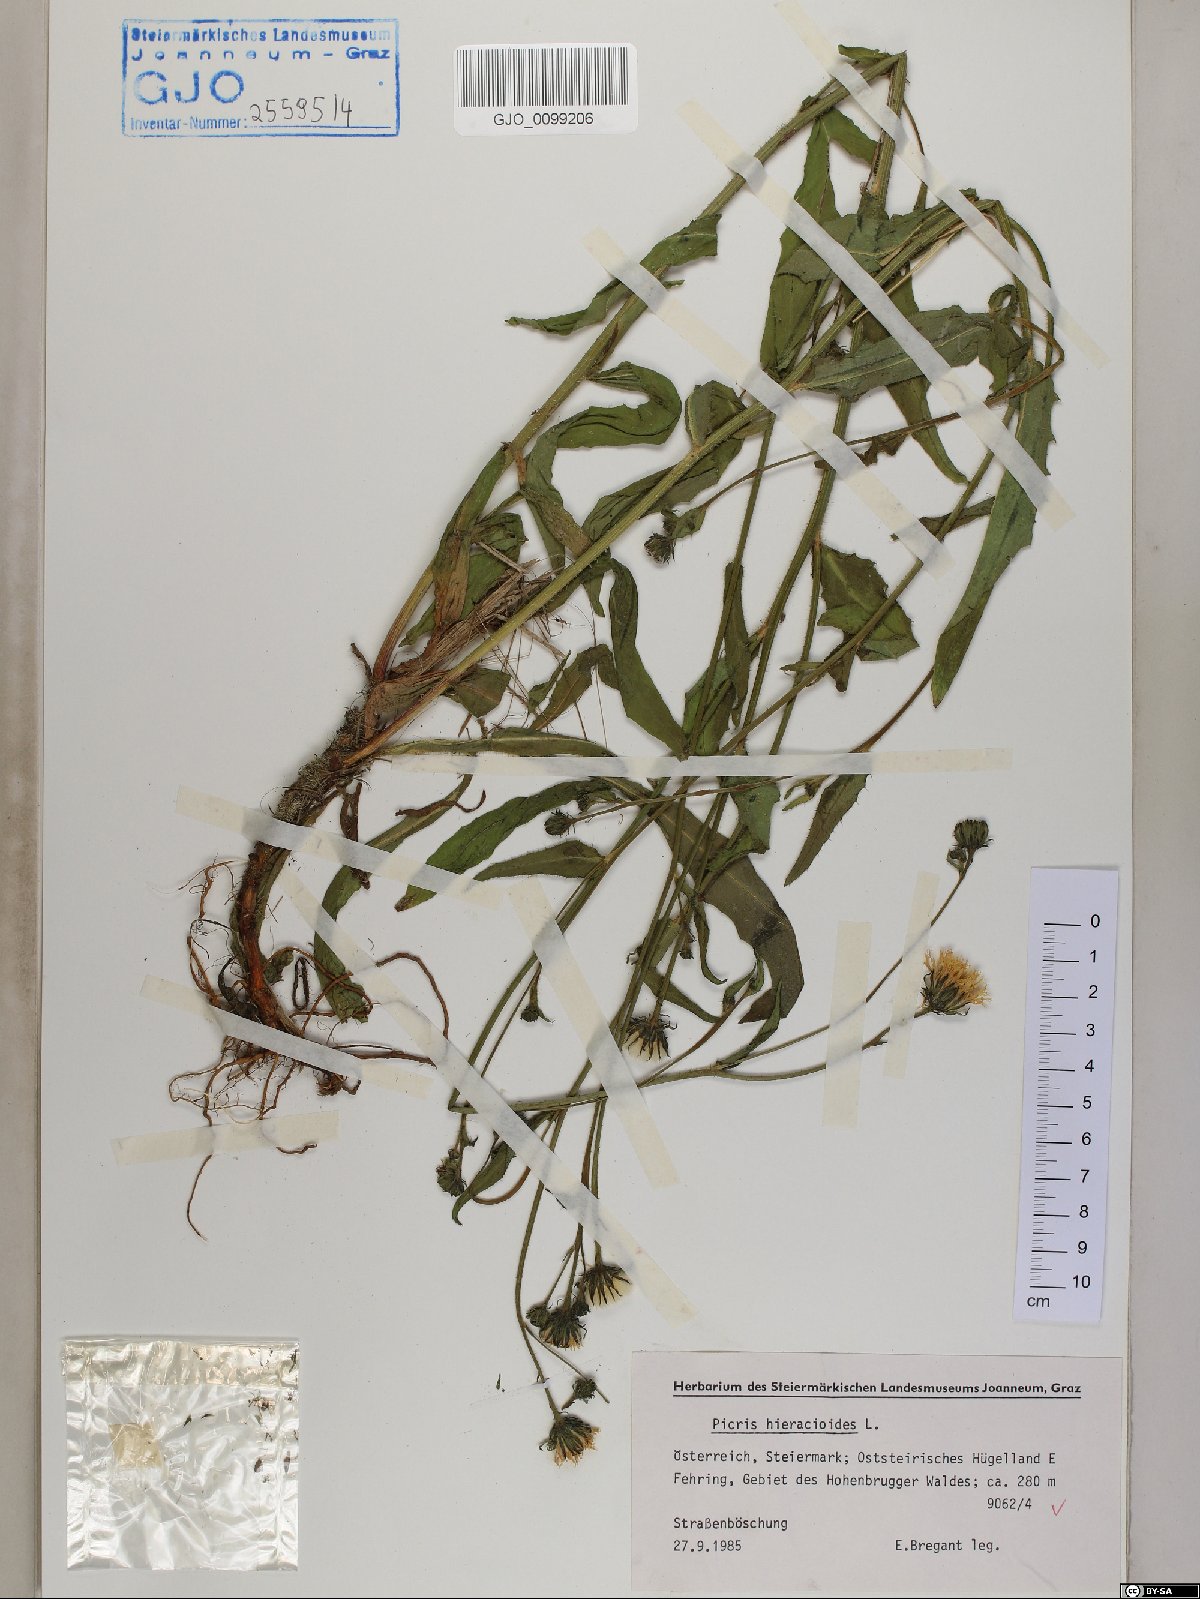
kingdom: Plantae
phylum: Tracheophyta
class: Magnoliopsida
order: Asterales
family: Asteraceae
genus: Picris
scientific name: Picris hieracioides
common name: Hawkweed oxtongue
